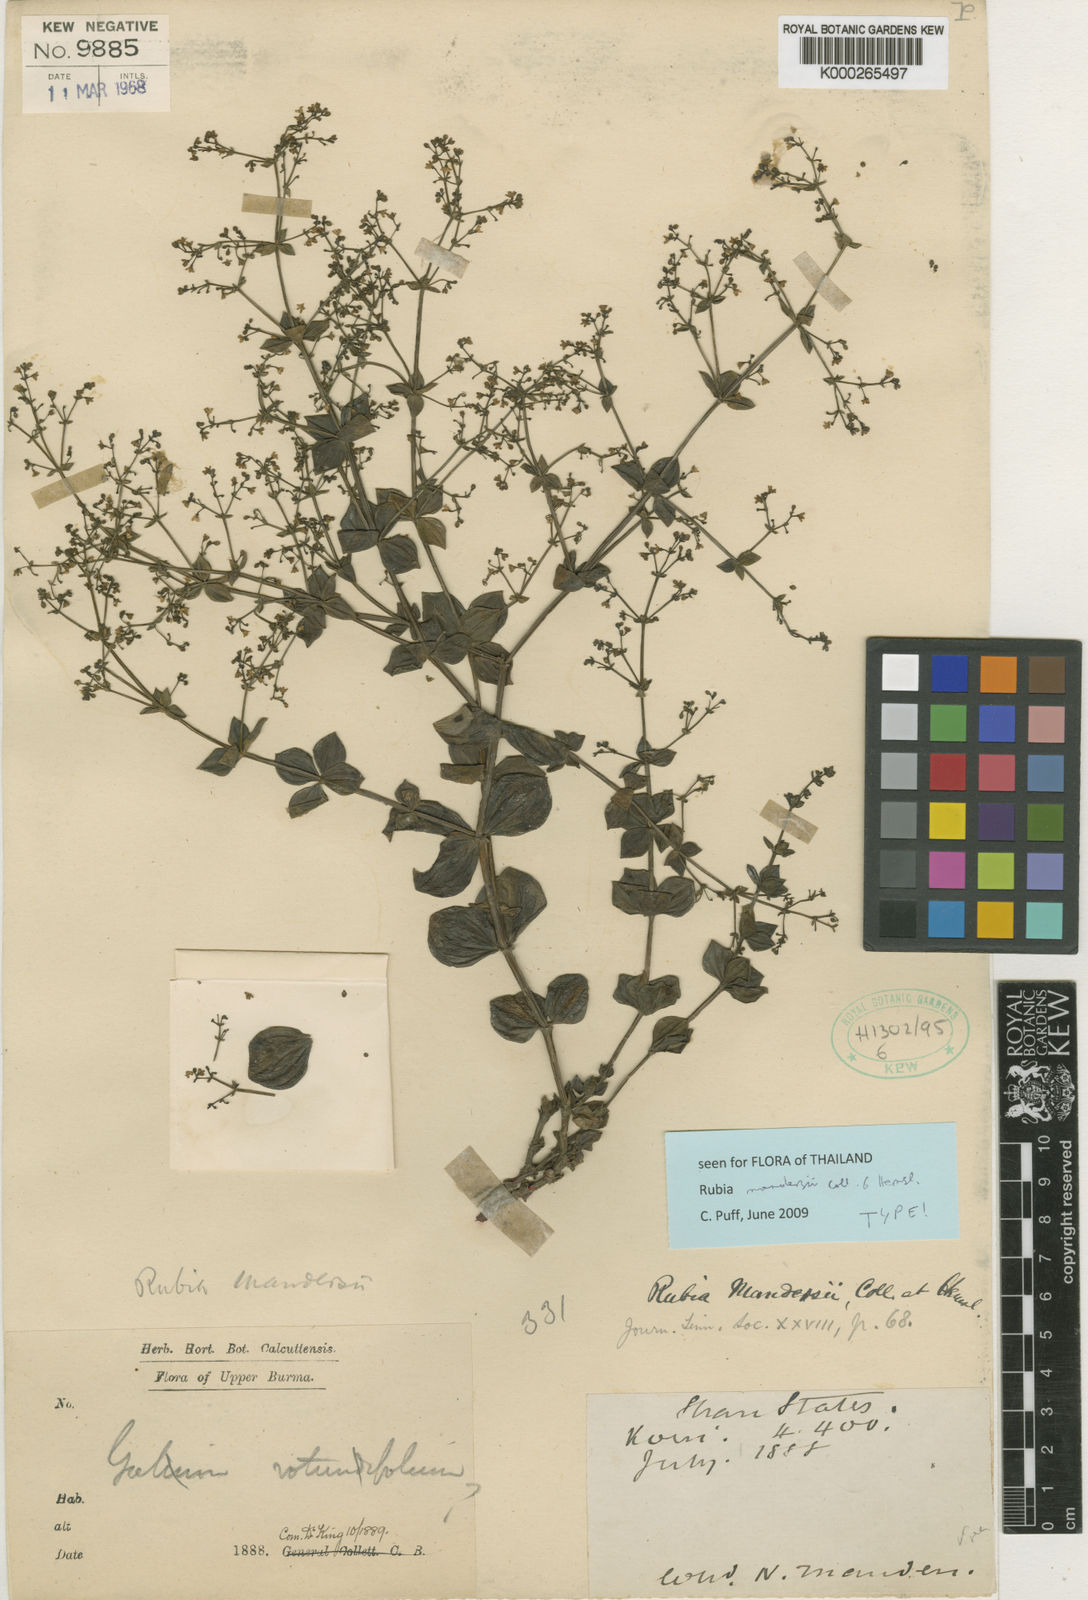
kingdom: Plantae
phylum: Tracheophyta
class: Magnoliopsida
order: Gentianales
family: Rubiaceae
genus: Rubia
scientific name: Rubia mandersii
